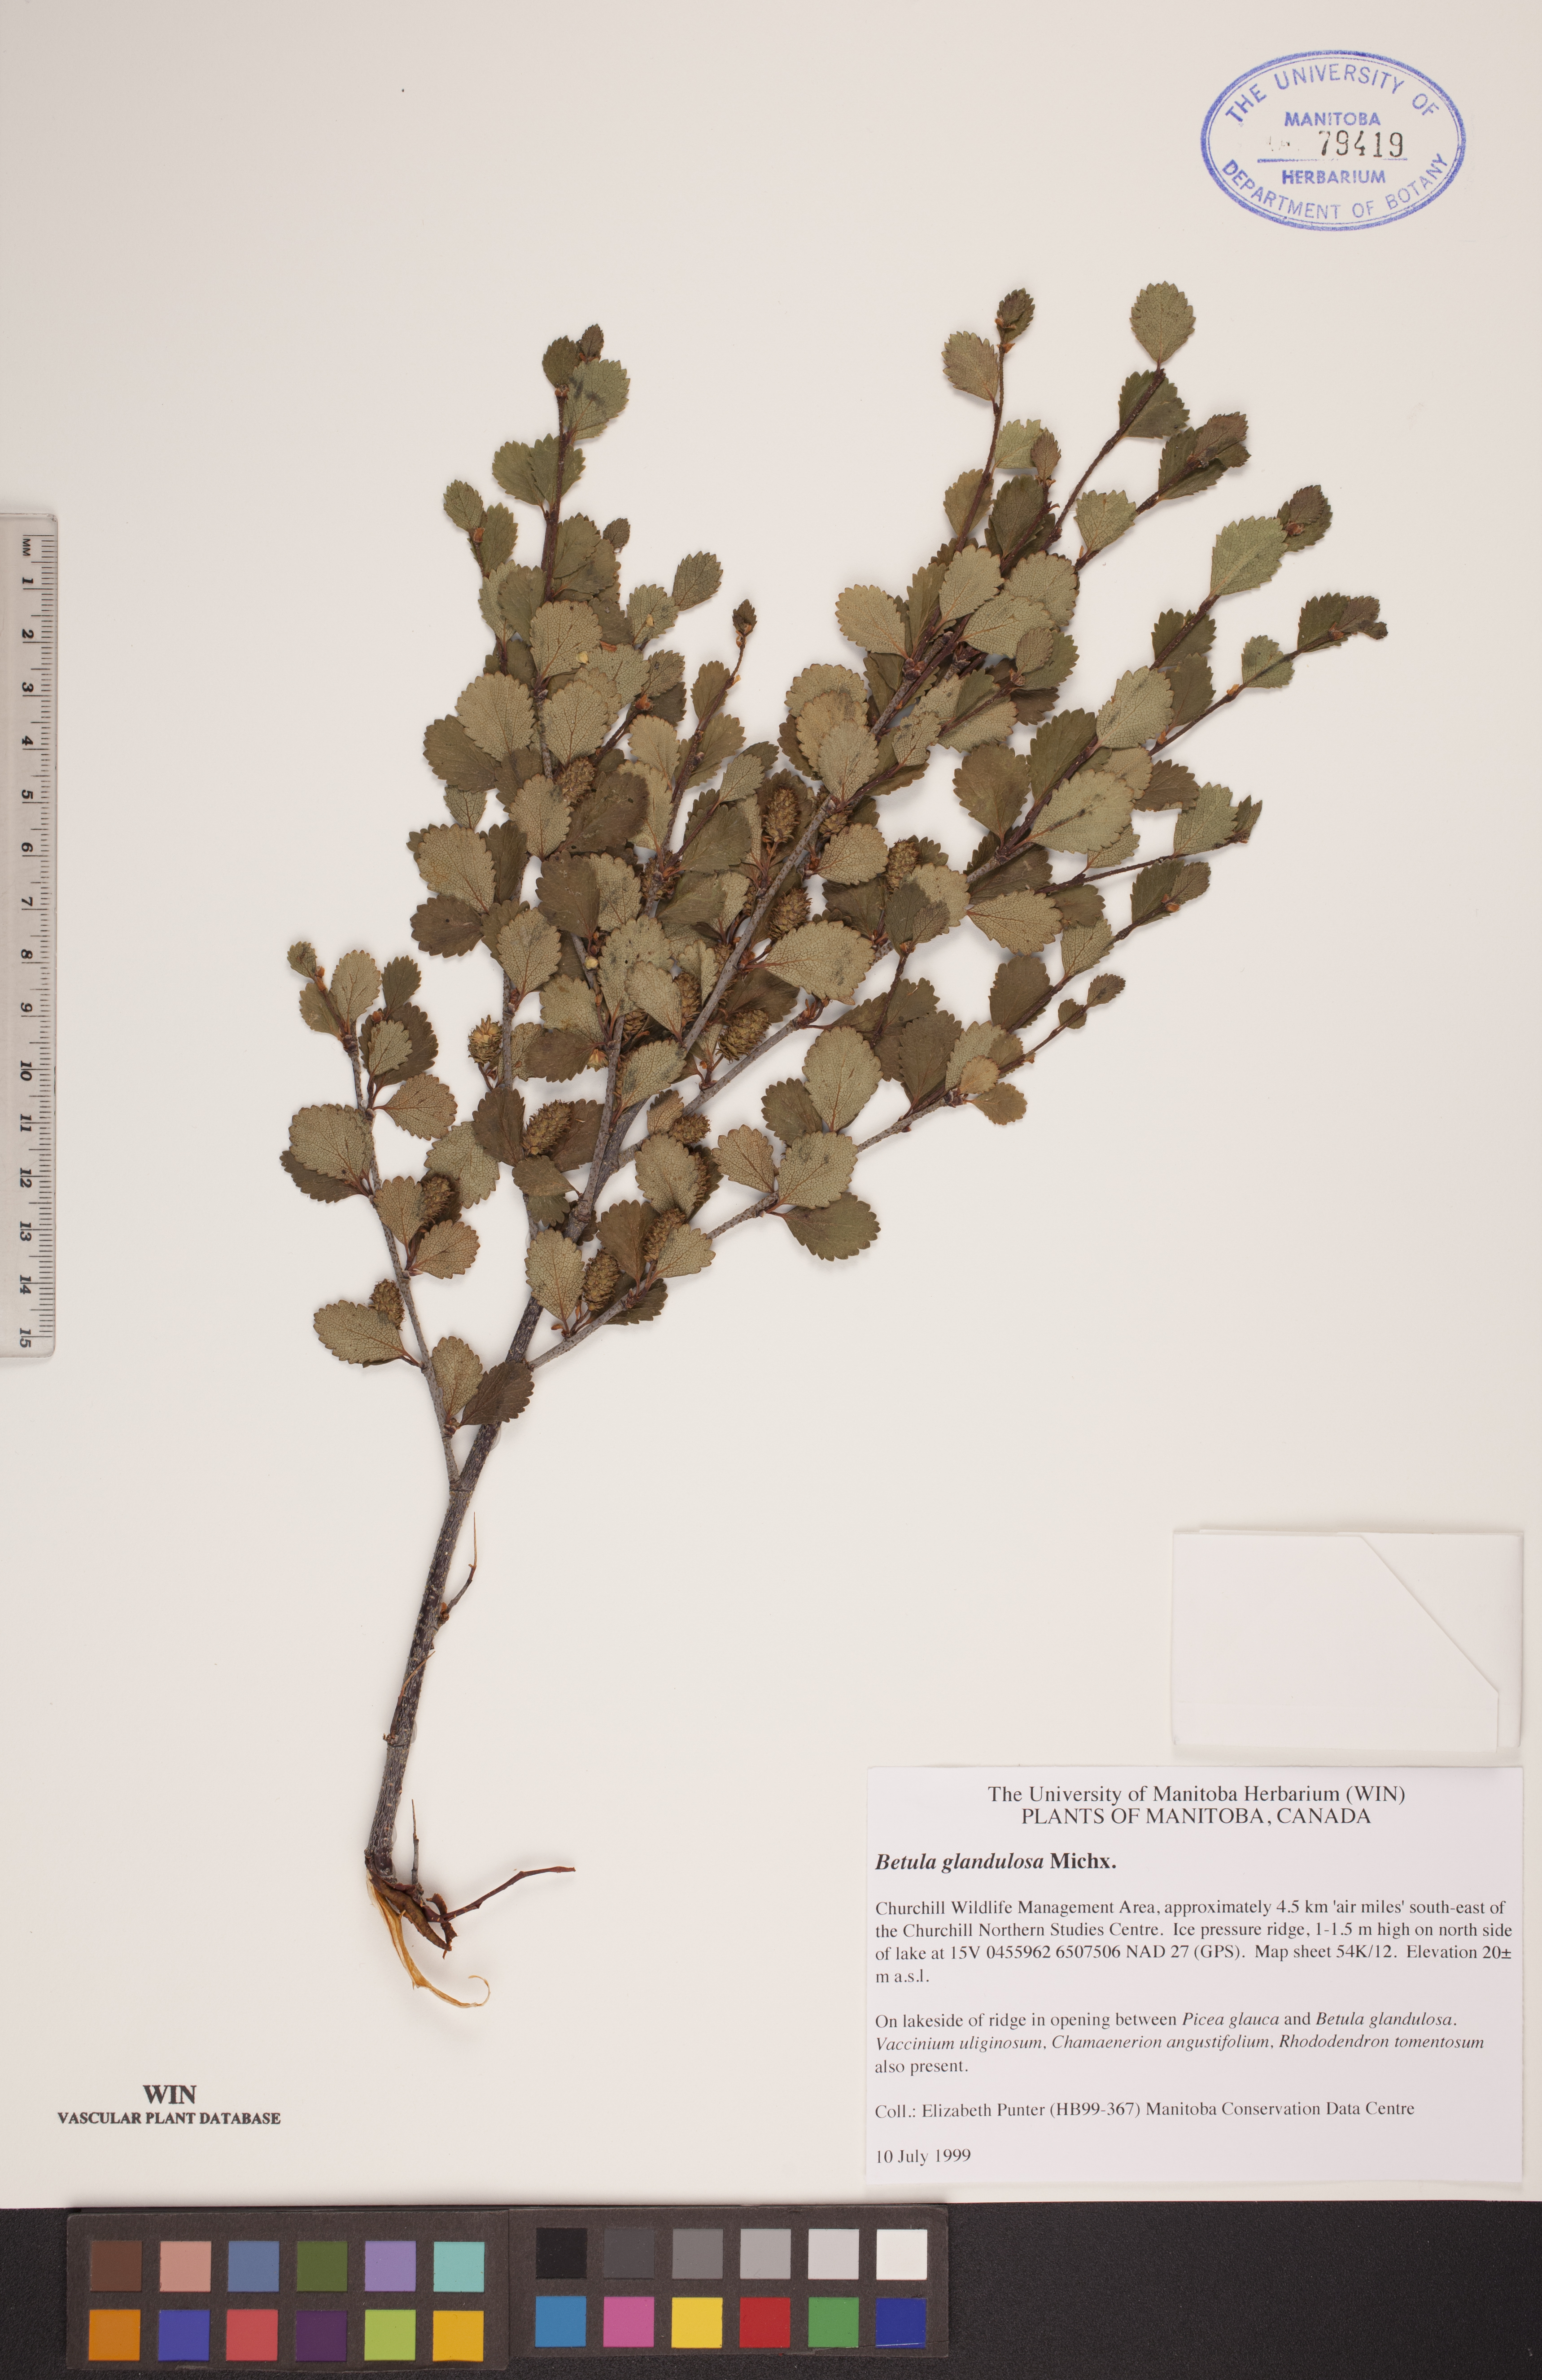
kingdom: Plantae
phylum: Tracheophyta
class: Magnoliopsida
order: Fagales
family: Betulaceae
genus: Betula
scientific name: Betula glandulosa
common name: Dwarf birch
